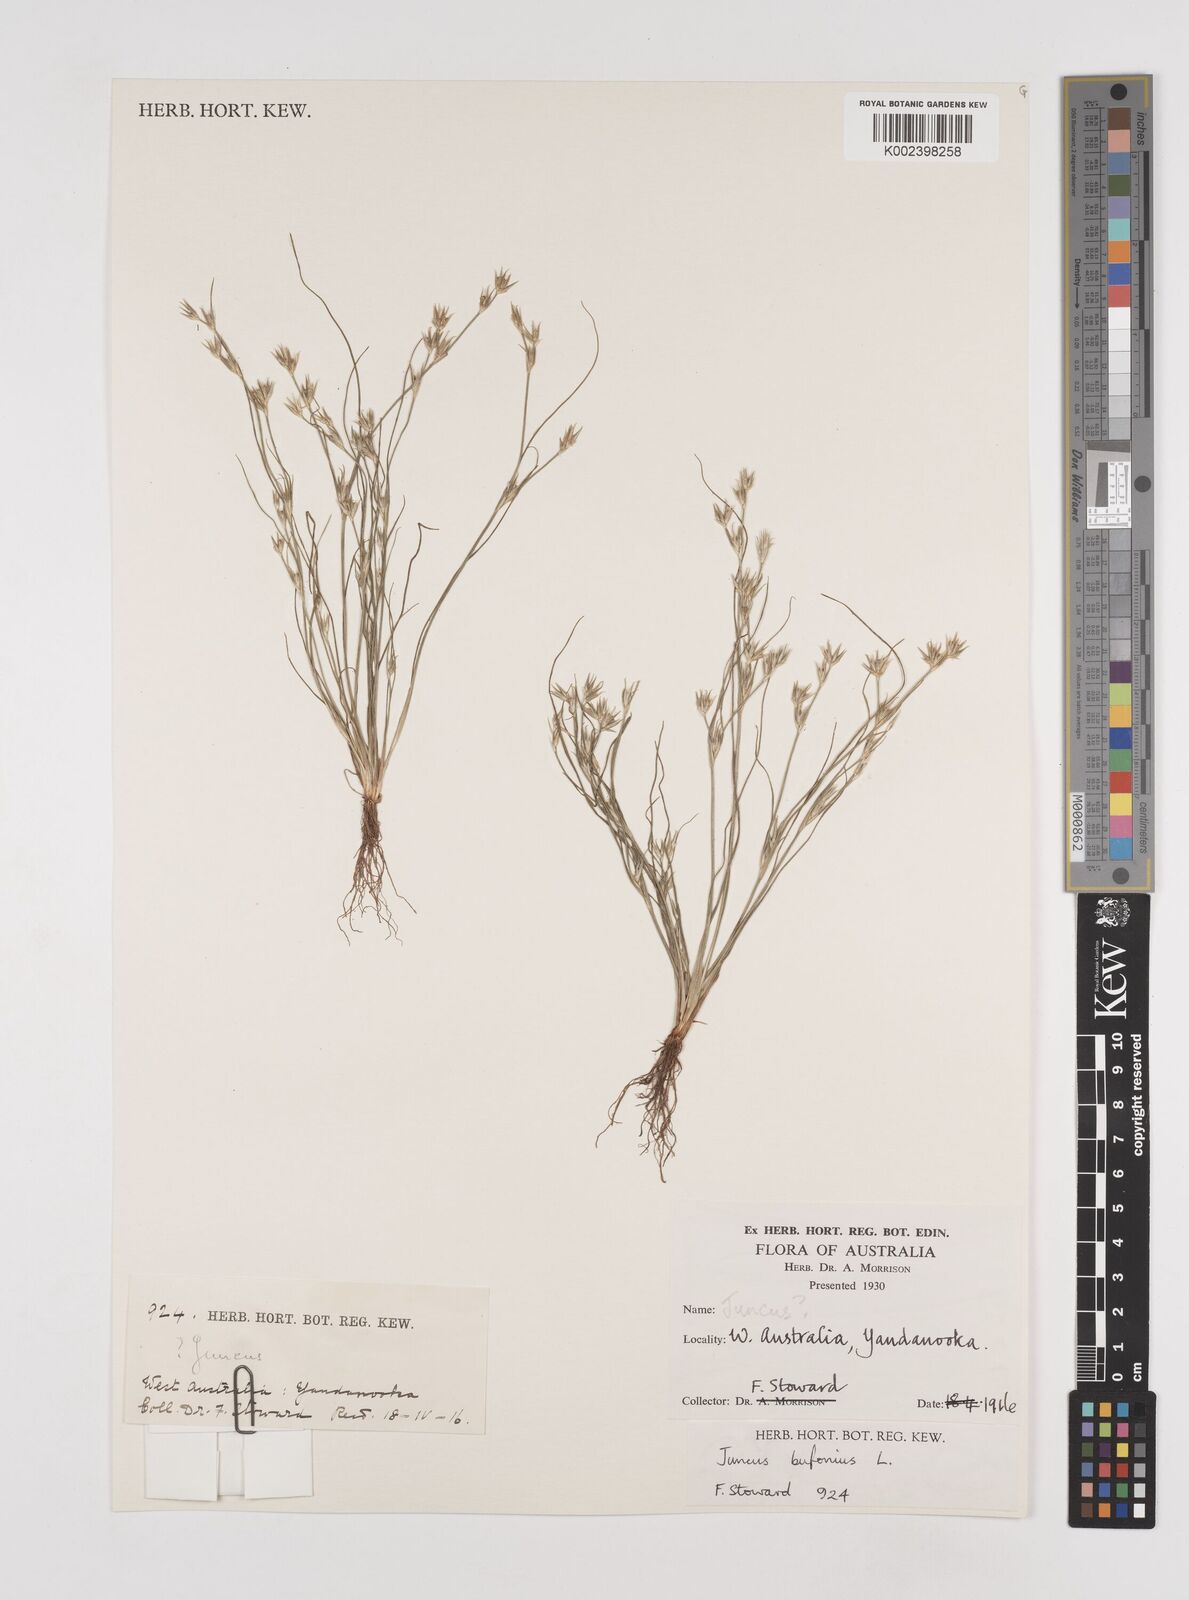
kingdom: Plantae
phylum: Tracheophyta
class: Liliopsida
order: Poales
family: Juncaceae
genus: Juncus
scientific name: Juncus bufonius
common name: Toad rush
